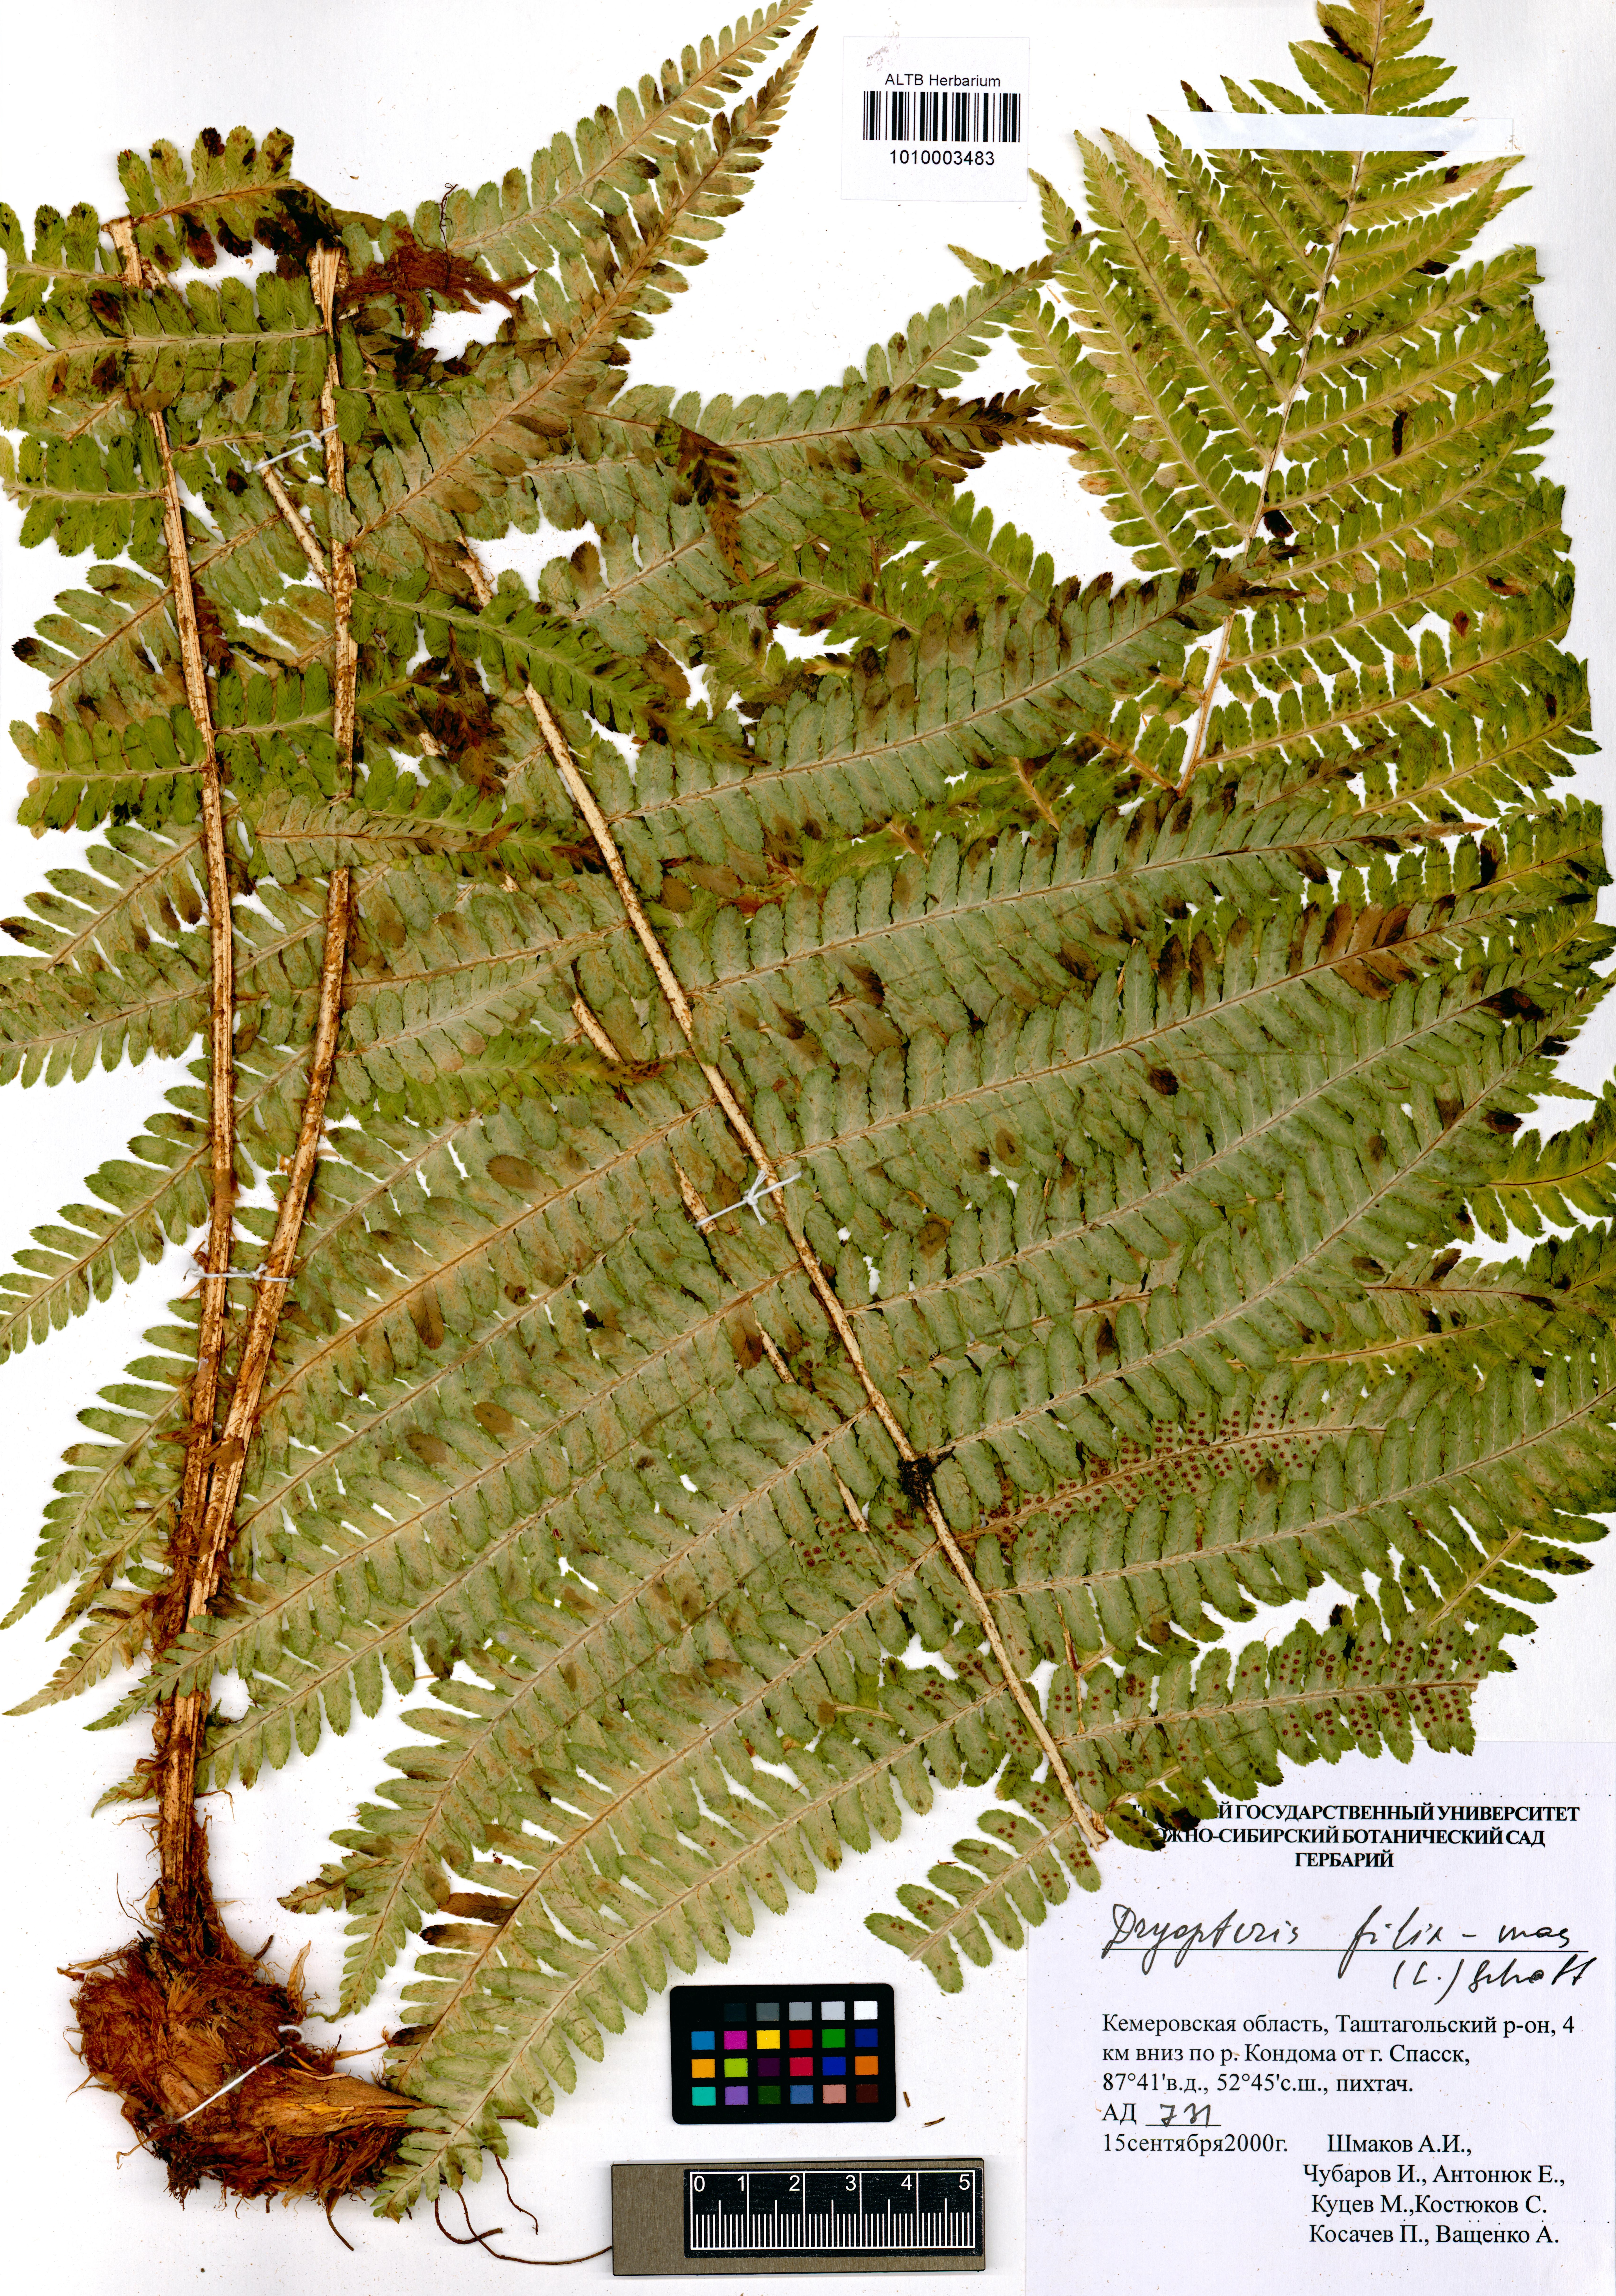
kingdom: Plantae
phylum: Tracheophyta
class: Polypodiopsida
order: Polypodiales
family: Dryopteridaceae
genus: Dryopteris
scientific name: Dryopteris filix-mas
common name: Male fern
